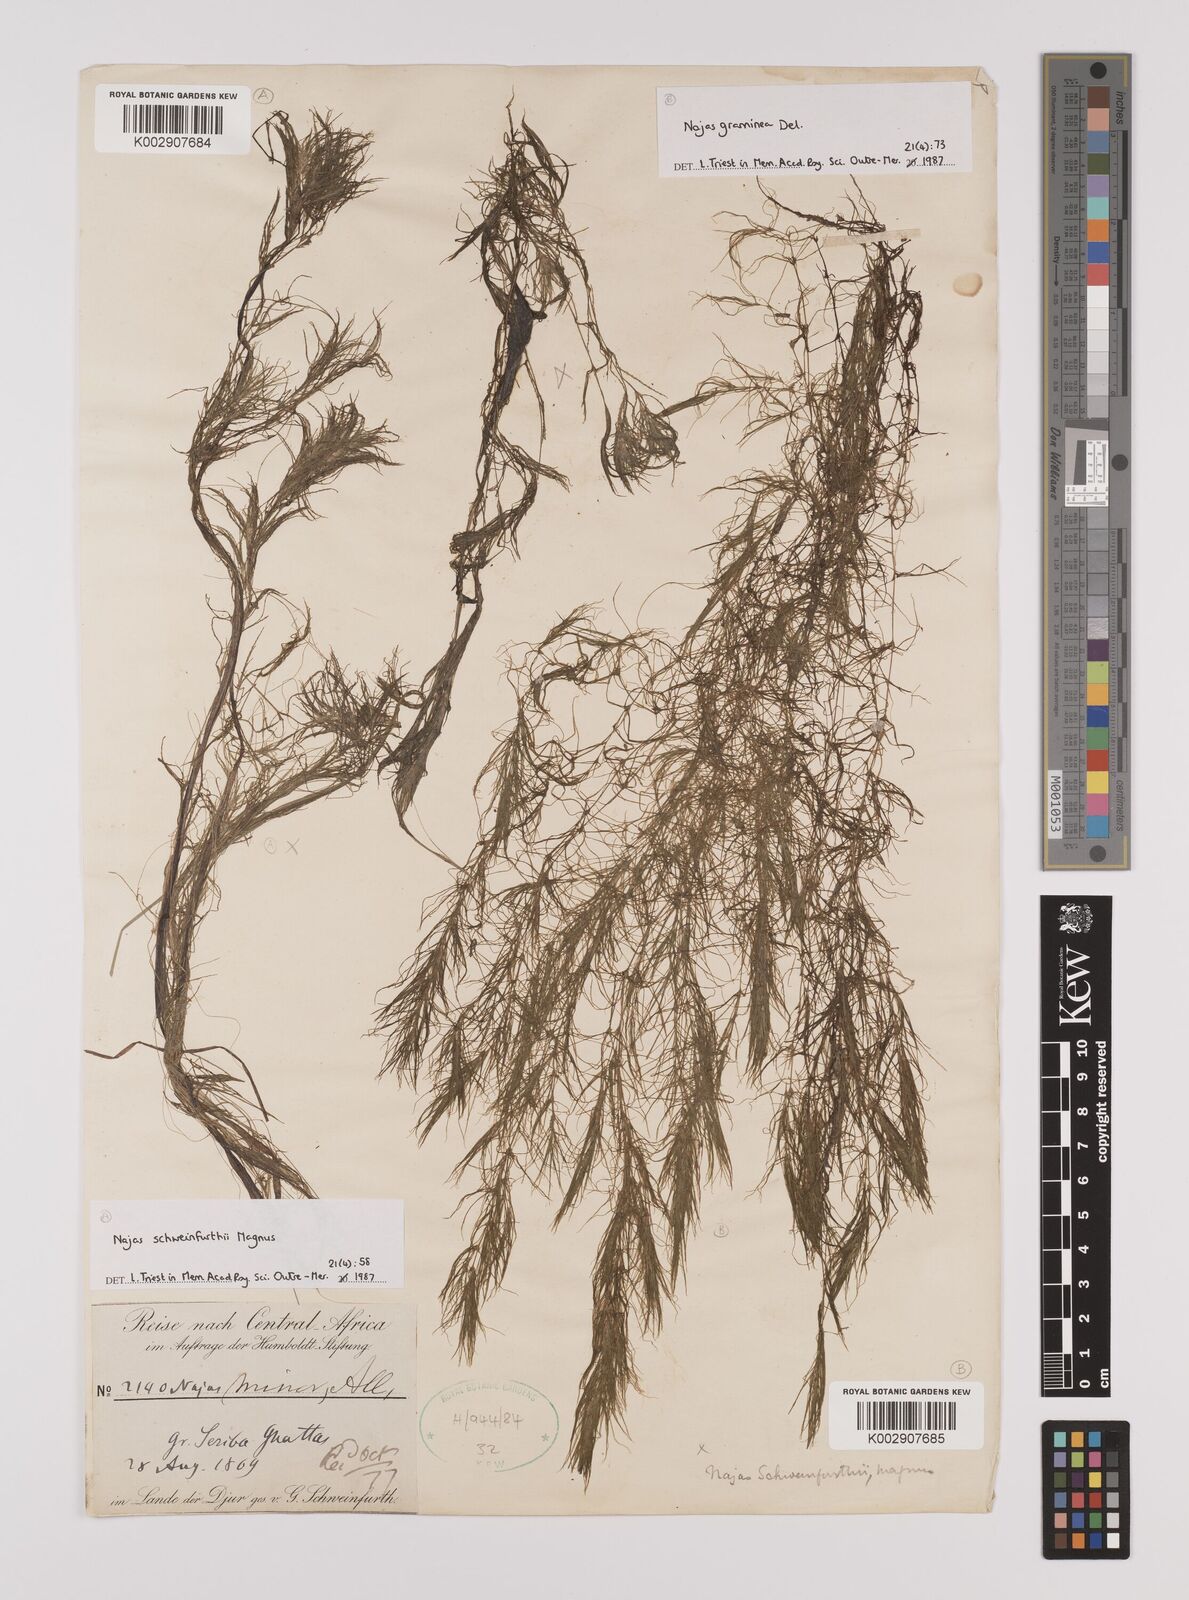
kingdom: Plantae
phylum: Tracheophyta
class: Liliopsida
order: Alismatales
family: Hydrocharitaceae
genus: Najas
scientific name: Najas schweinfurthii
